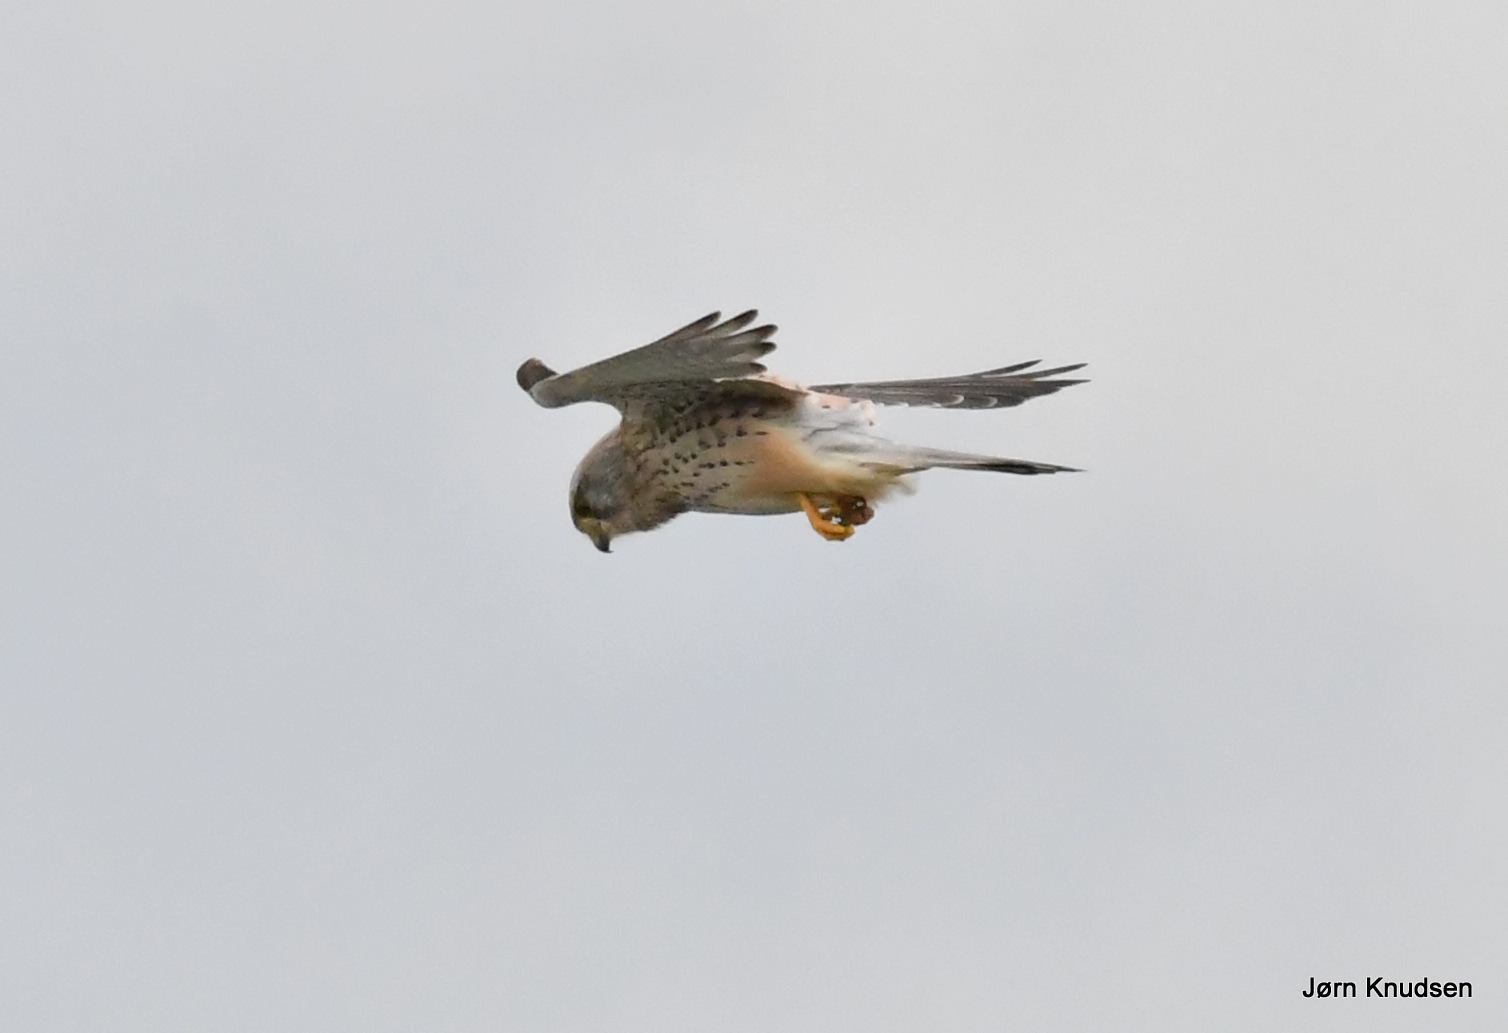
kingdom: Animalia
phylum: Chordata
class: Aves
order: Falconiformes
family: Falconidae
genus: Falco
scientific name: Falco tinnunculus
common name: Tårnfalk
